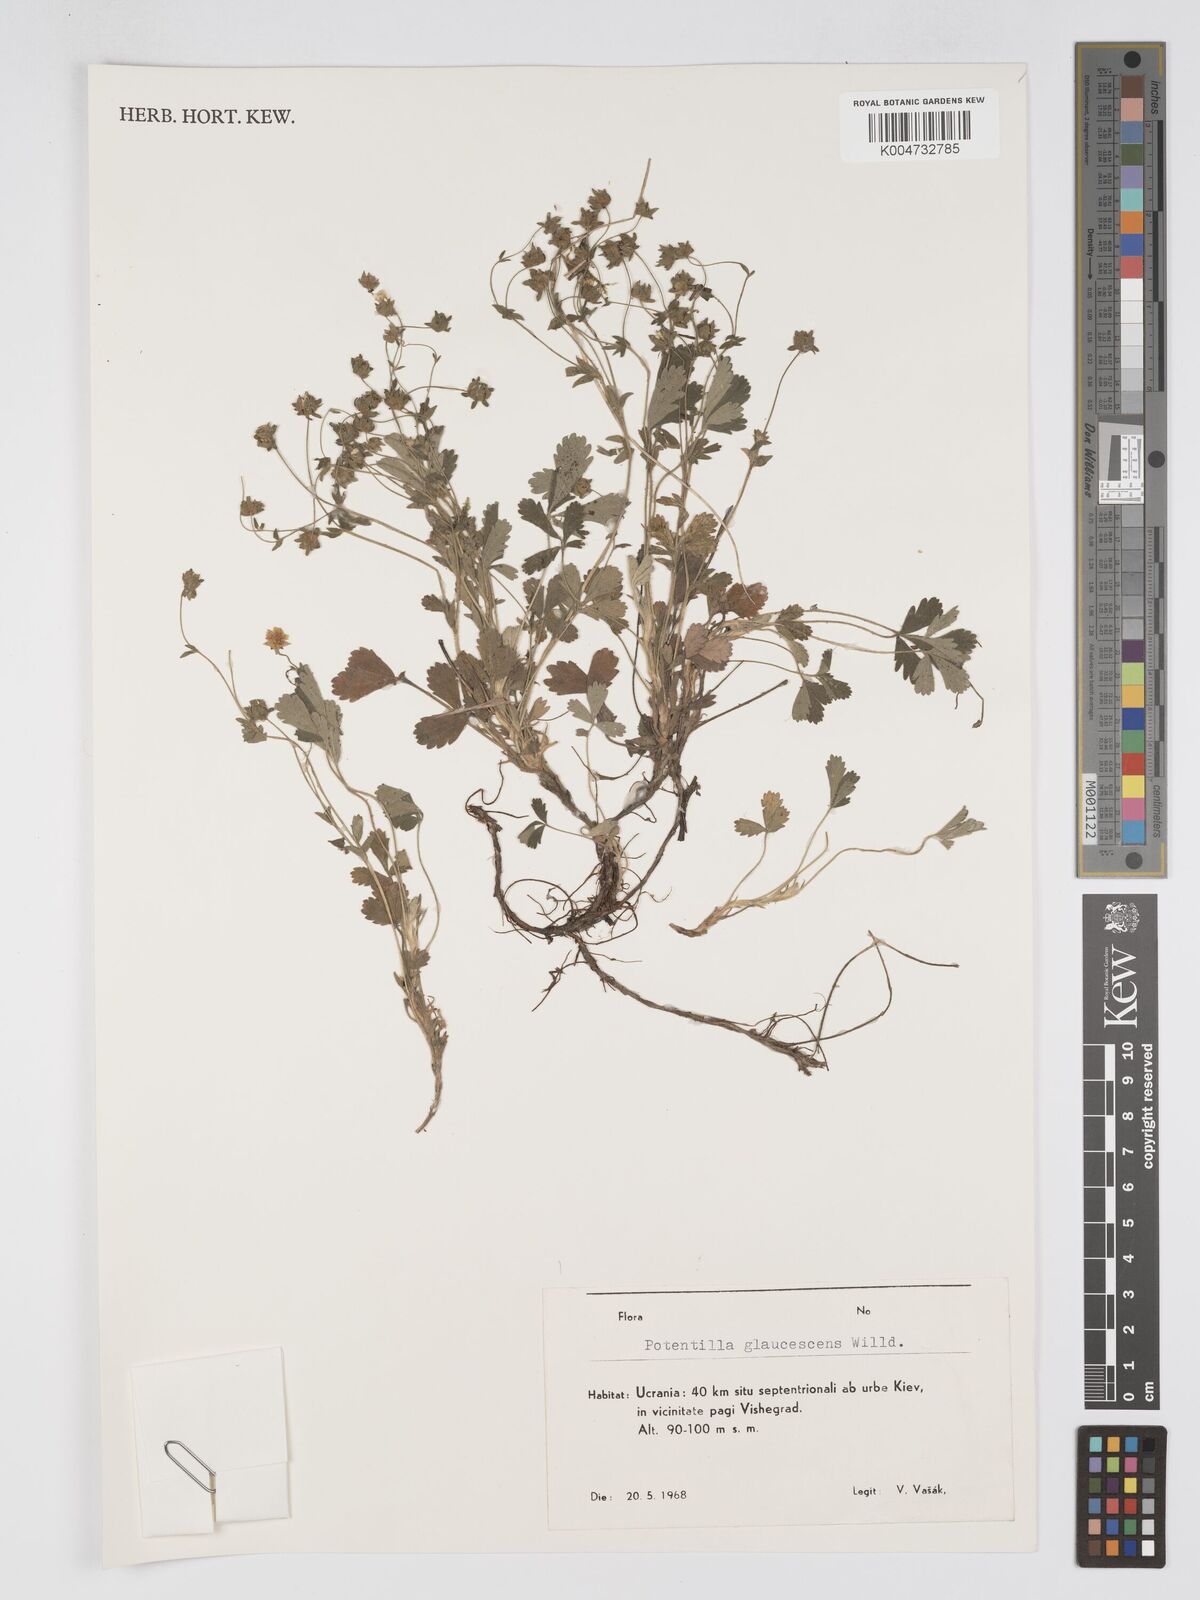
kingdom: Plantae
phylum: Tracheophyta
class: Magnoliopsida
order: Rosales
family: Rosaceae
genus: Potentilla
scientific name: Potentilla
